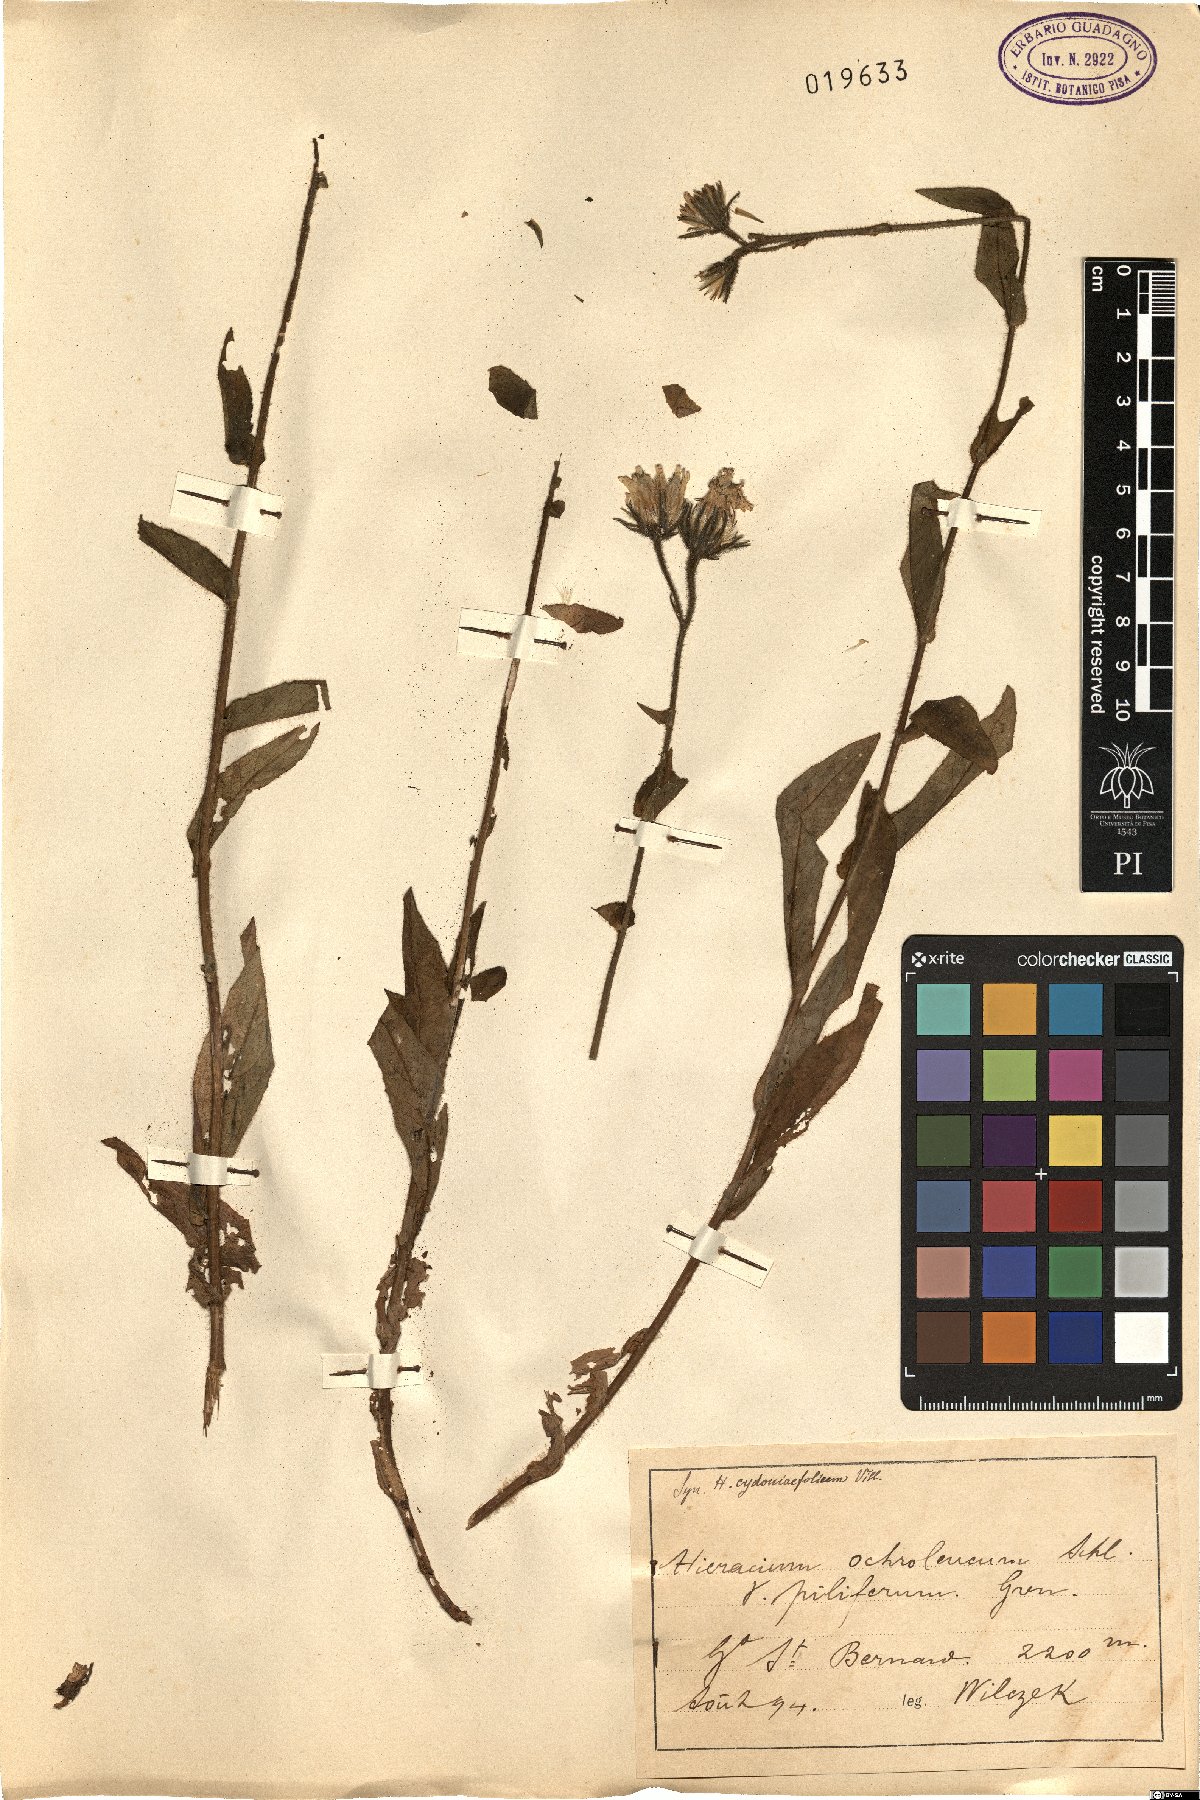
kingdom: Plantae
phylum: Tracheophyta
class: Magnoliopsida
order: Asterales
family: Asteraceae
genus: Hieracium
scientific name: Hieracium ochroleucum
